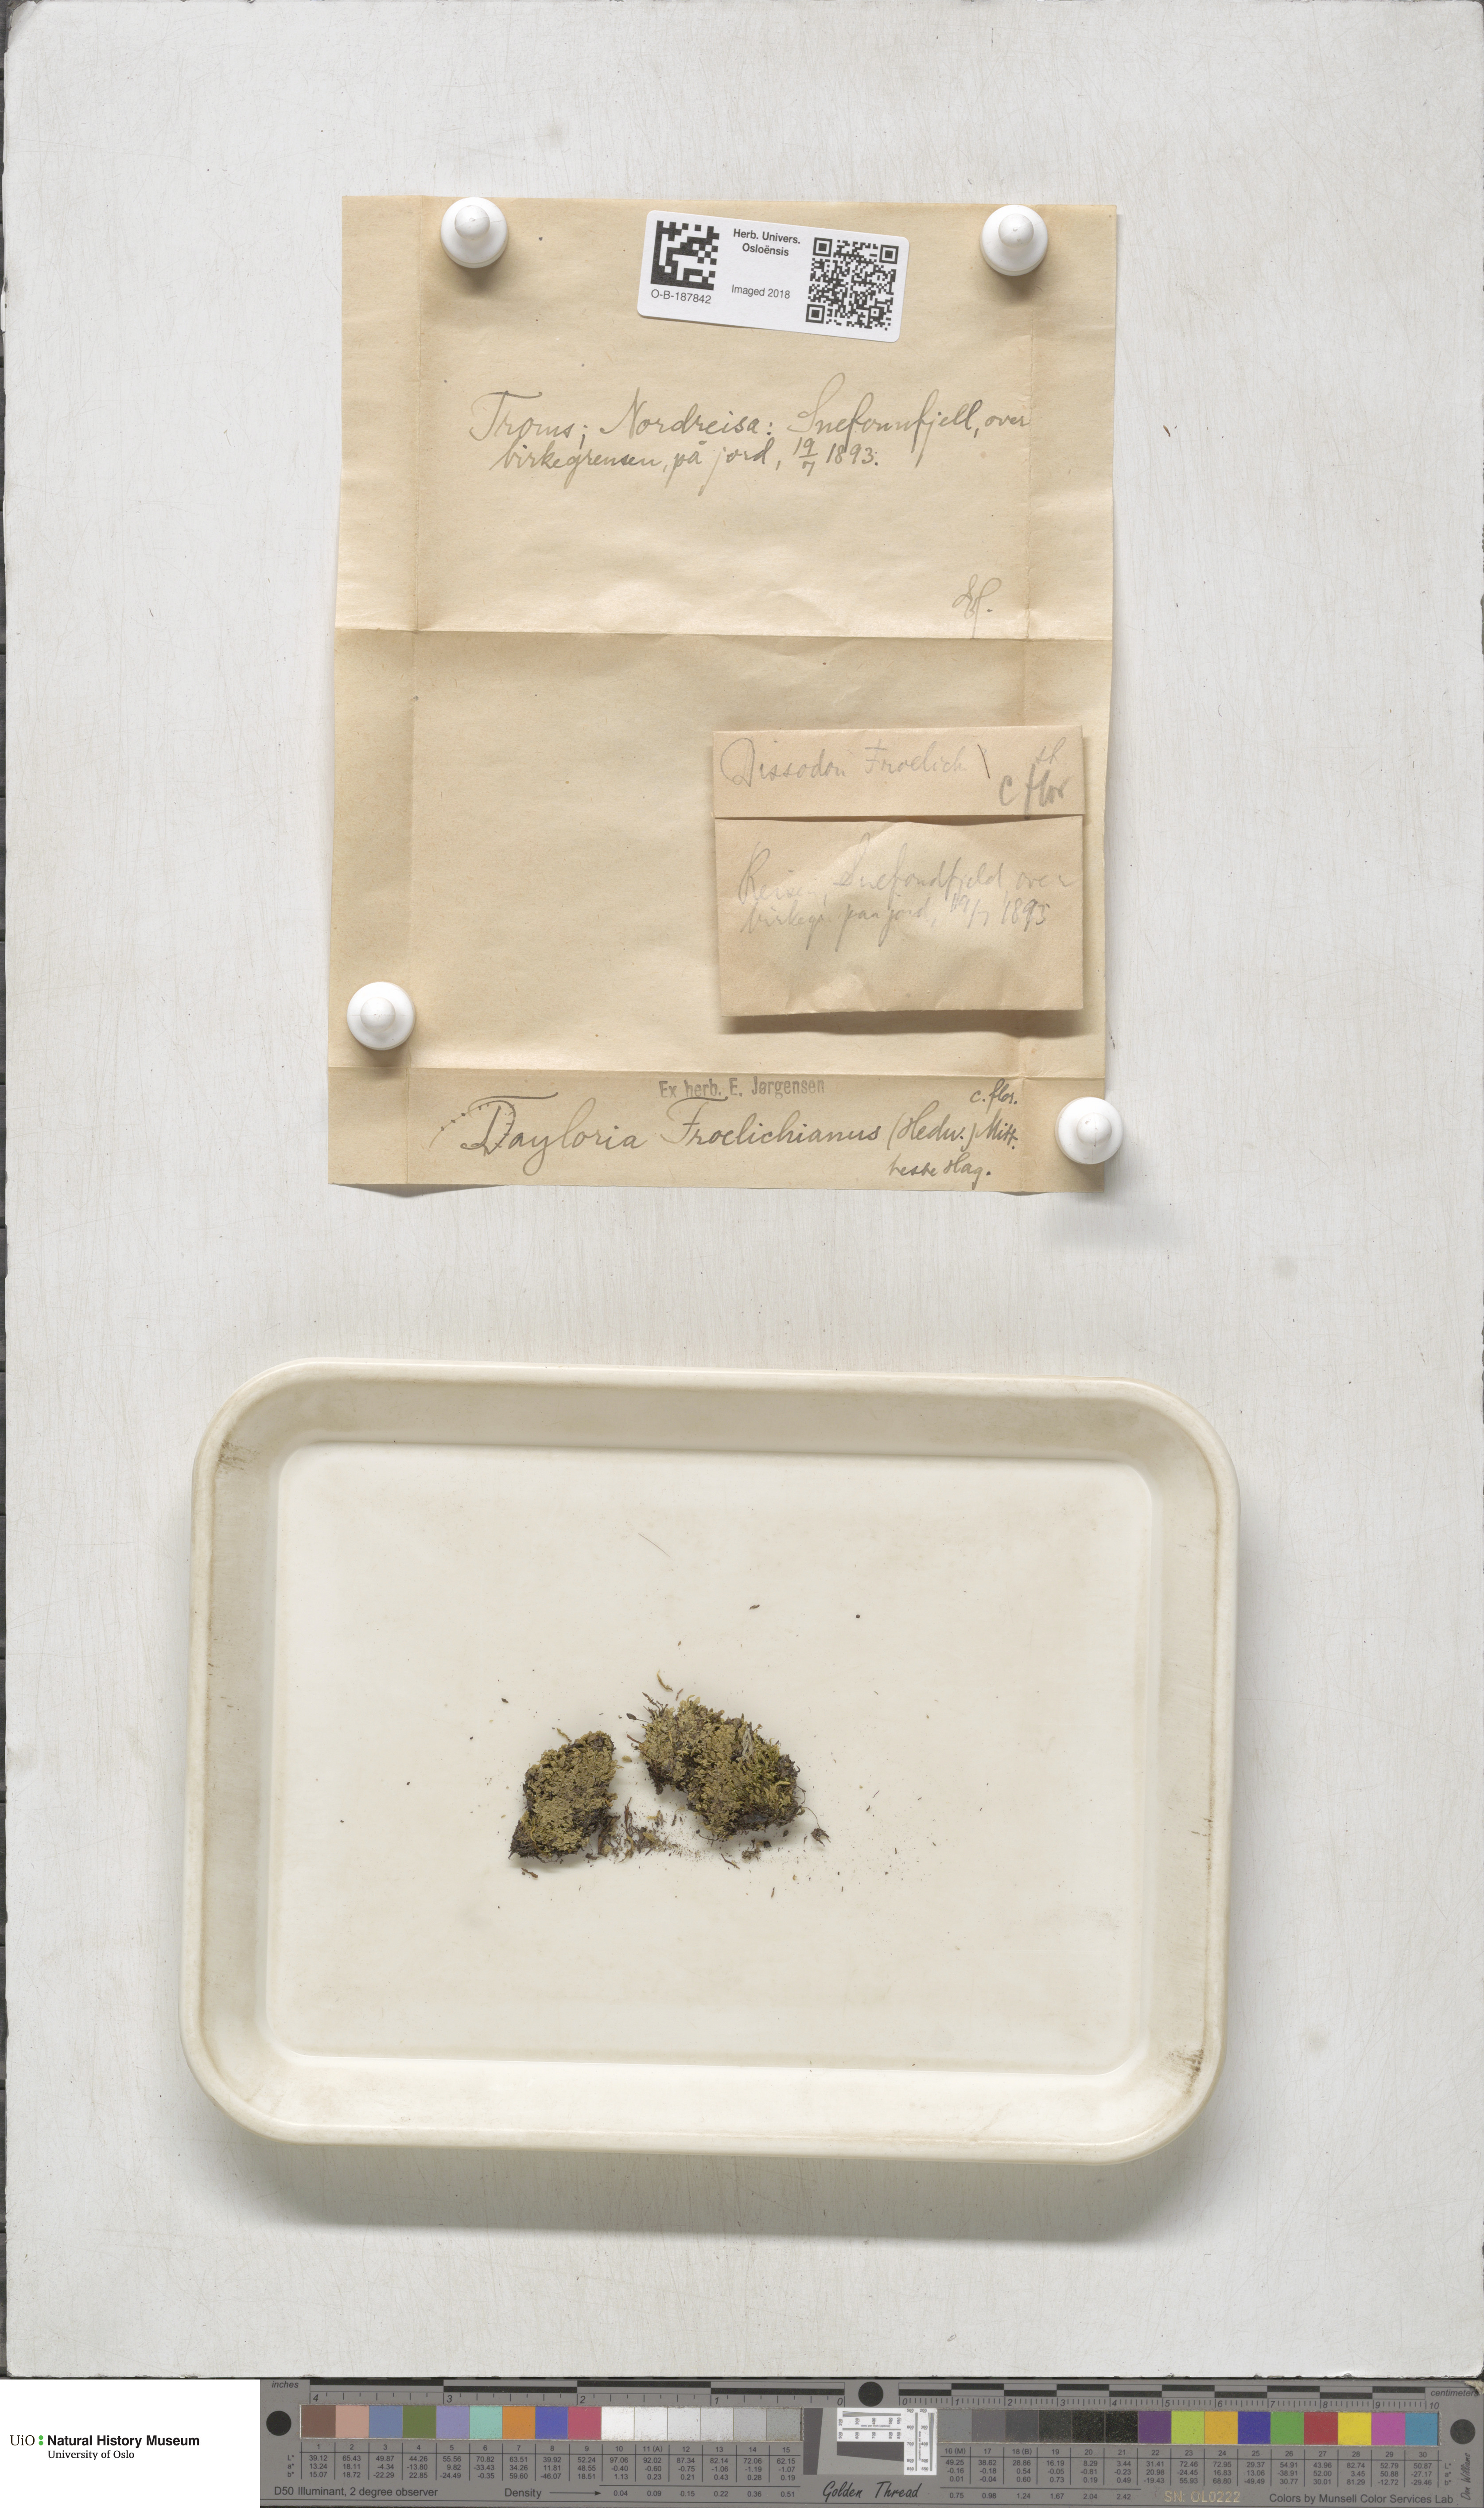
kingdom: Plantae
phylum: Bryophyta
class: Bryopsida
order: Splachnales
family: Splachnaceae
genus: Tayloria
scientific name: Tayloria froelichiana
